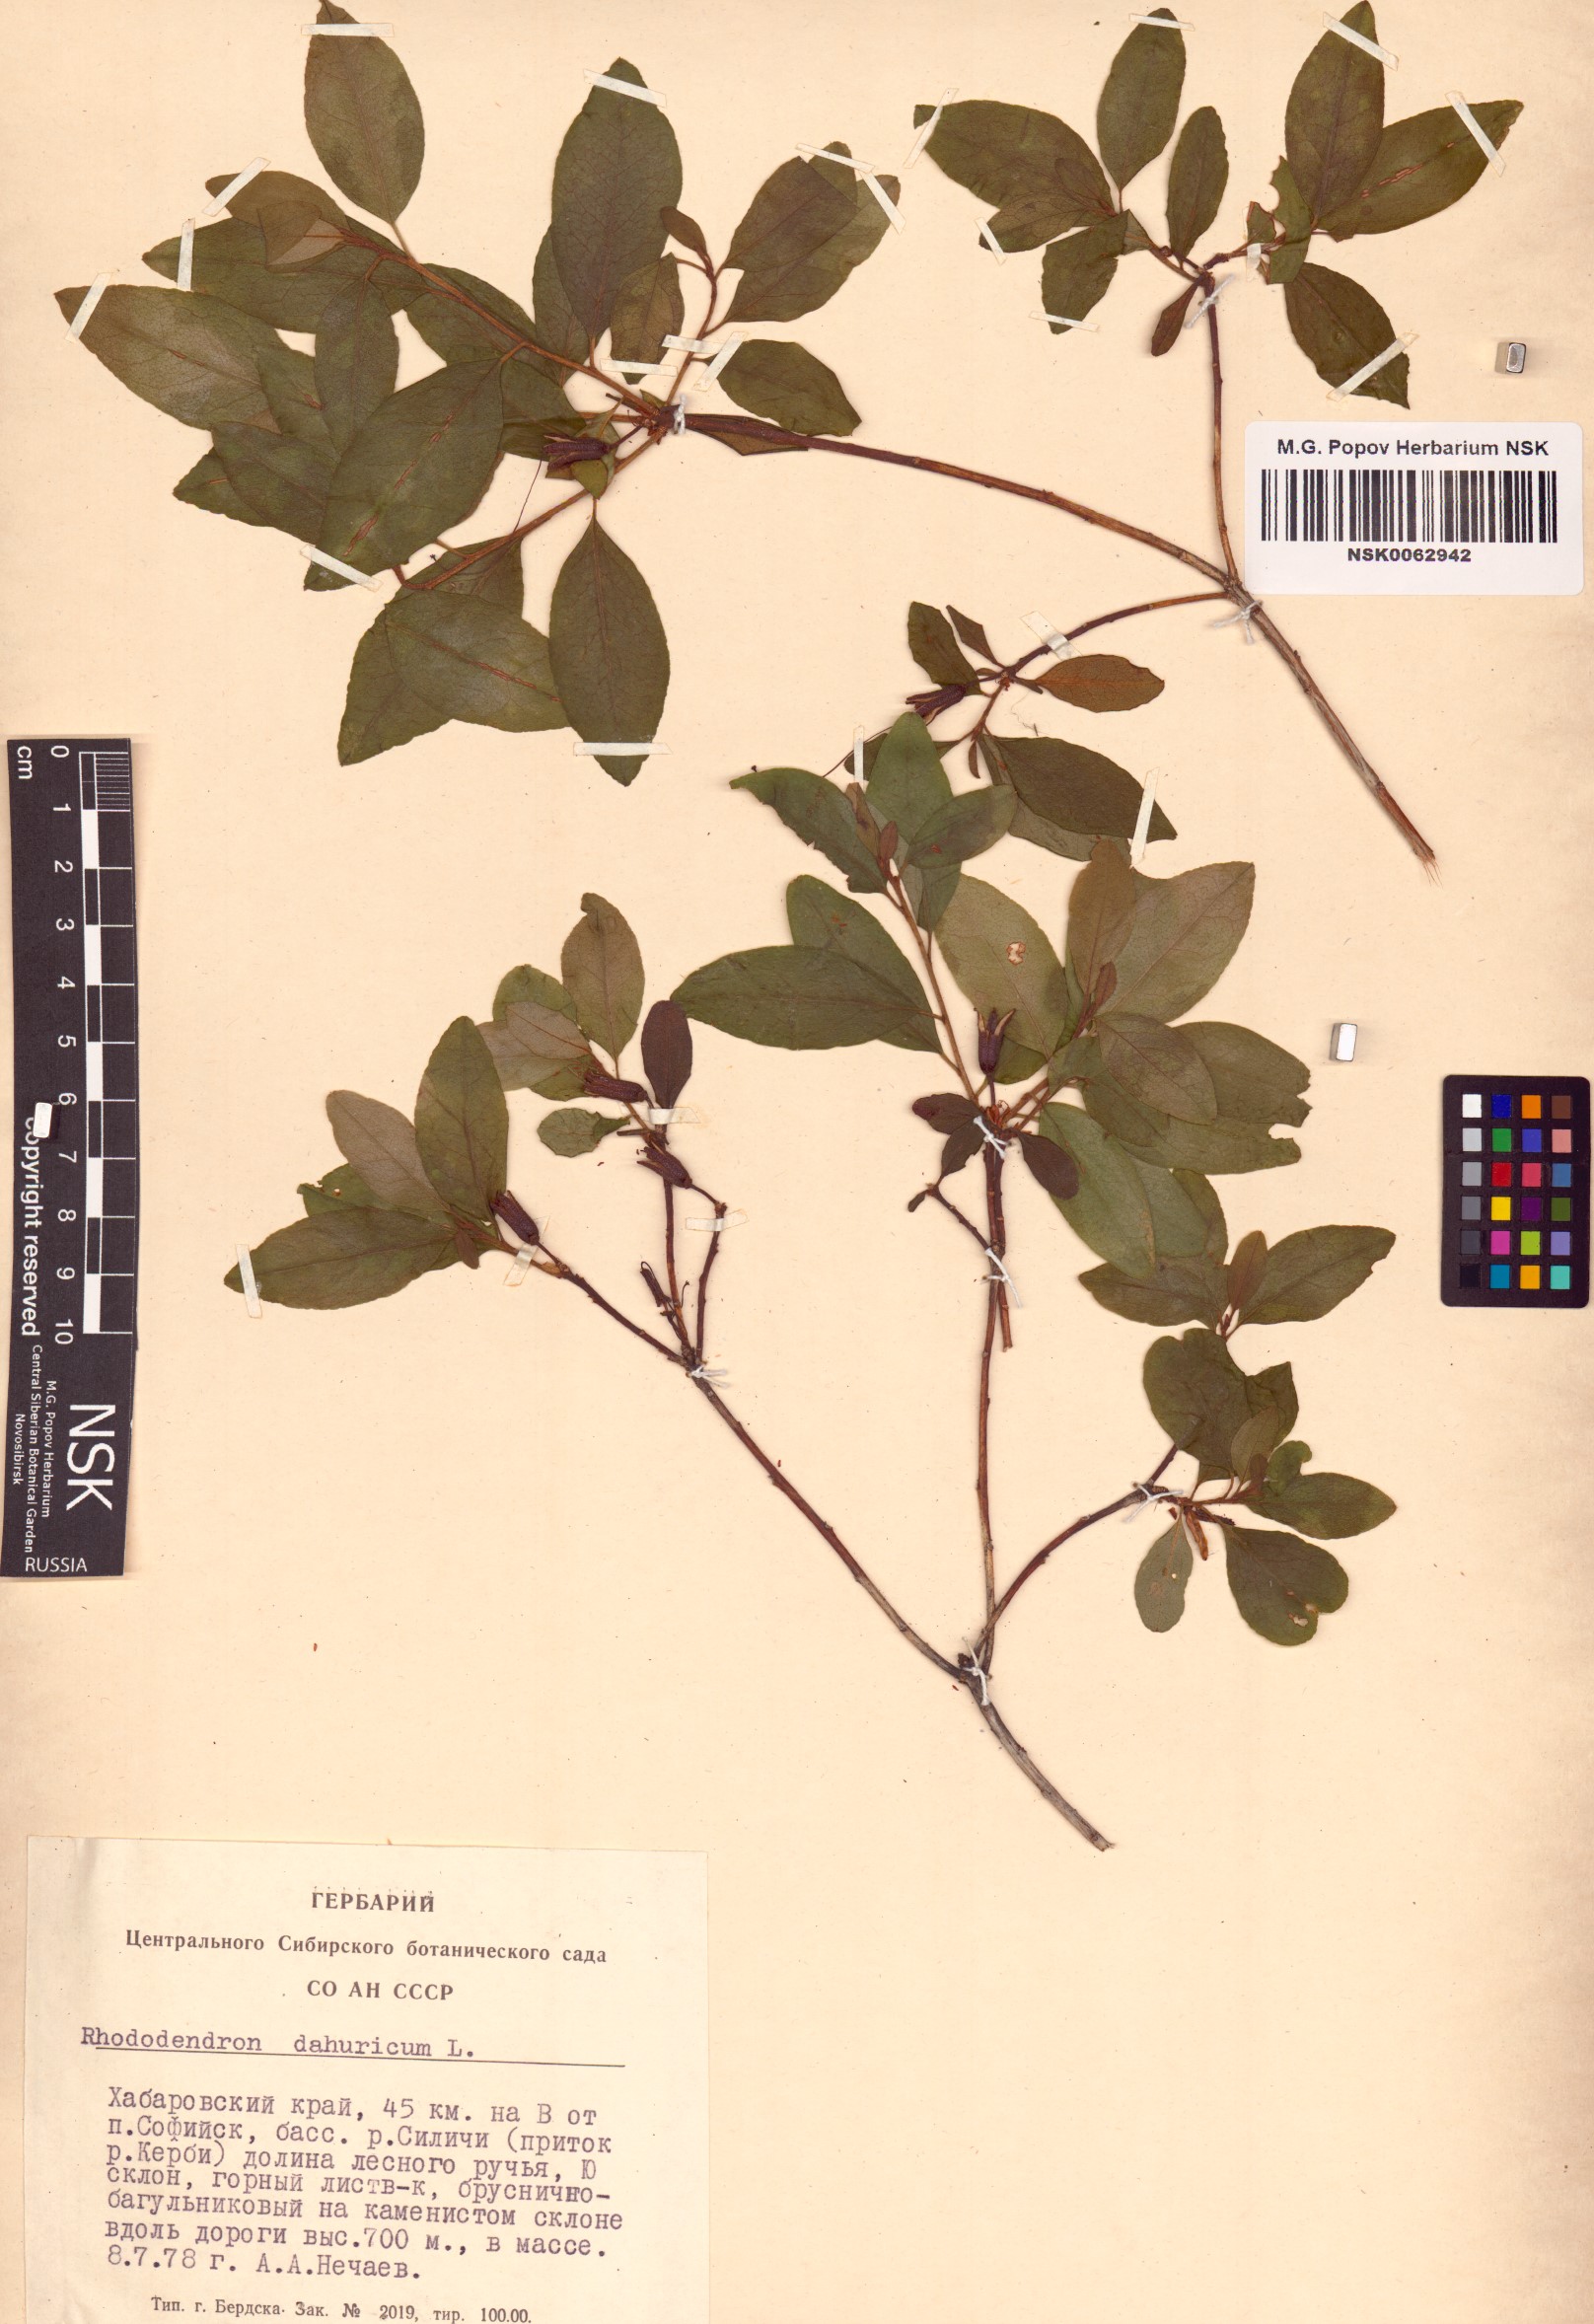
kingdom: Plantae
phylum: Tracheophyta
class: Magnoliopsida
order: Ericales
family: Ericaceae
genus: Rhododendron
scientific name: Rhododendron dauricum
